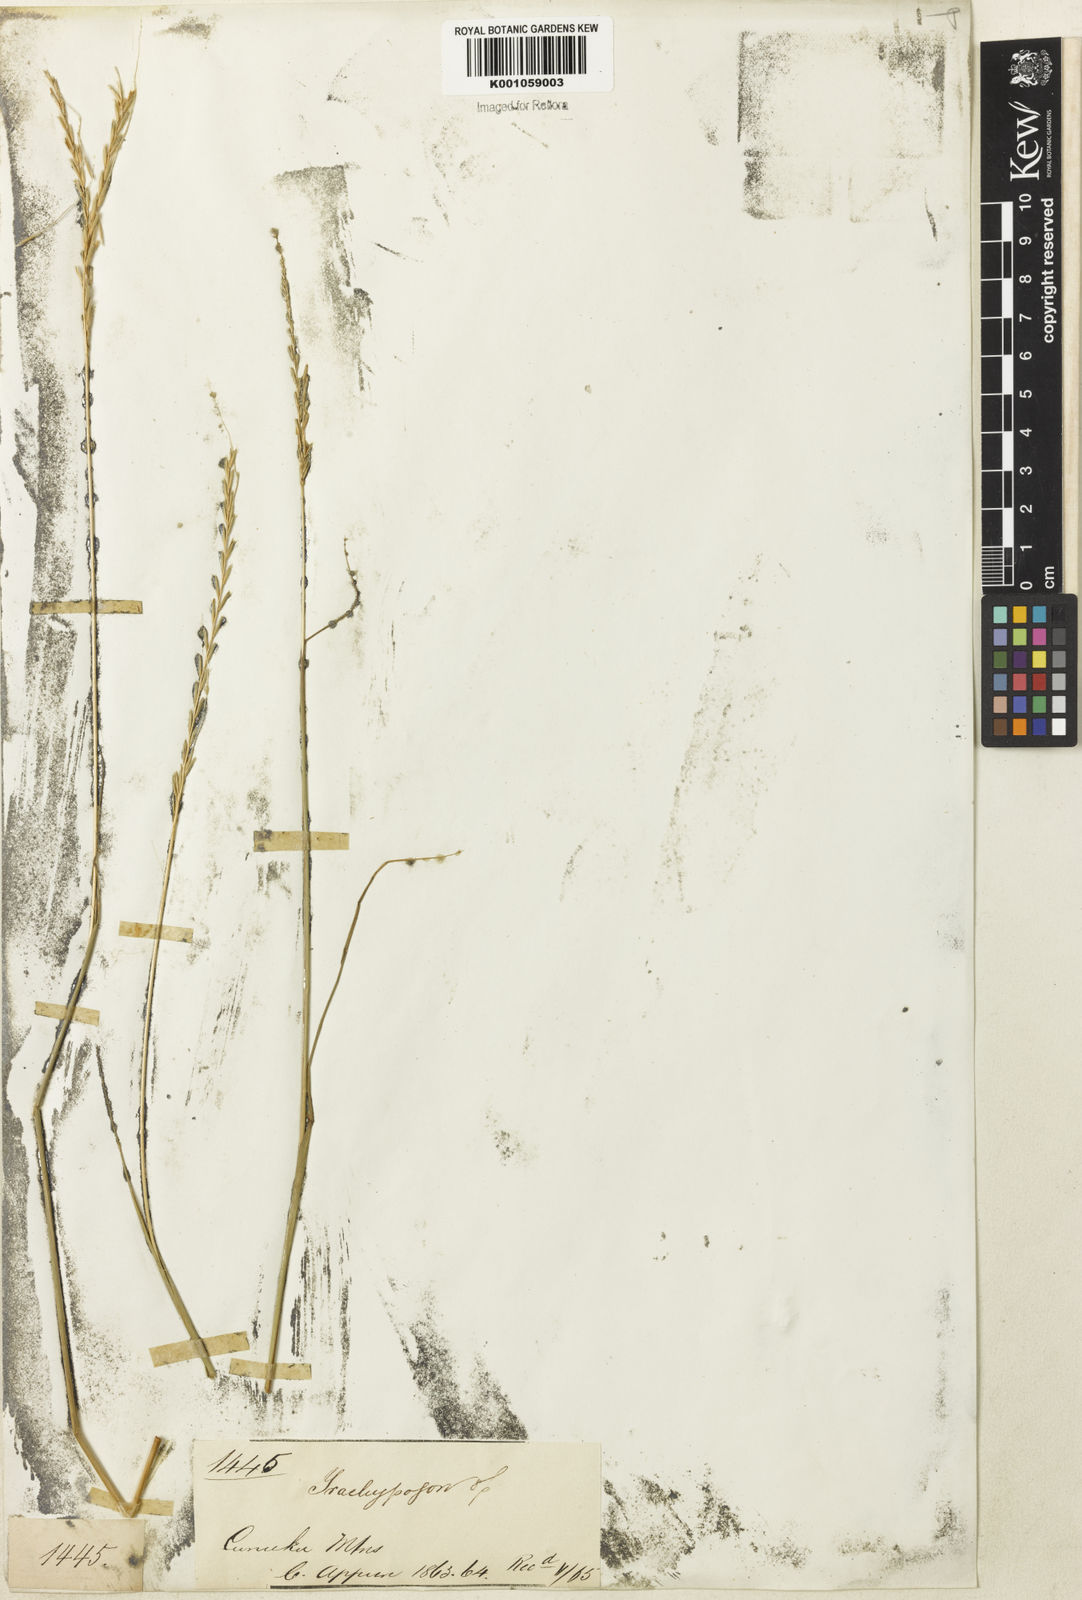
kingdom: Plantae
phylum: Tracheophyta
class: Liliopsida
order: Poales
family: Poaceae
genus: Trachypogon
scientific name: Trachypogon spicatus
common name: Crinkle-awn
